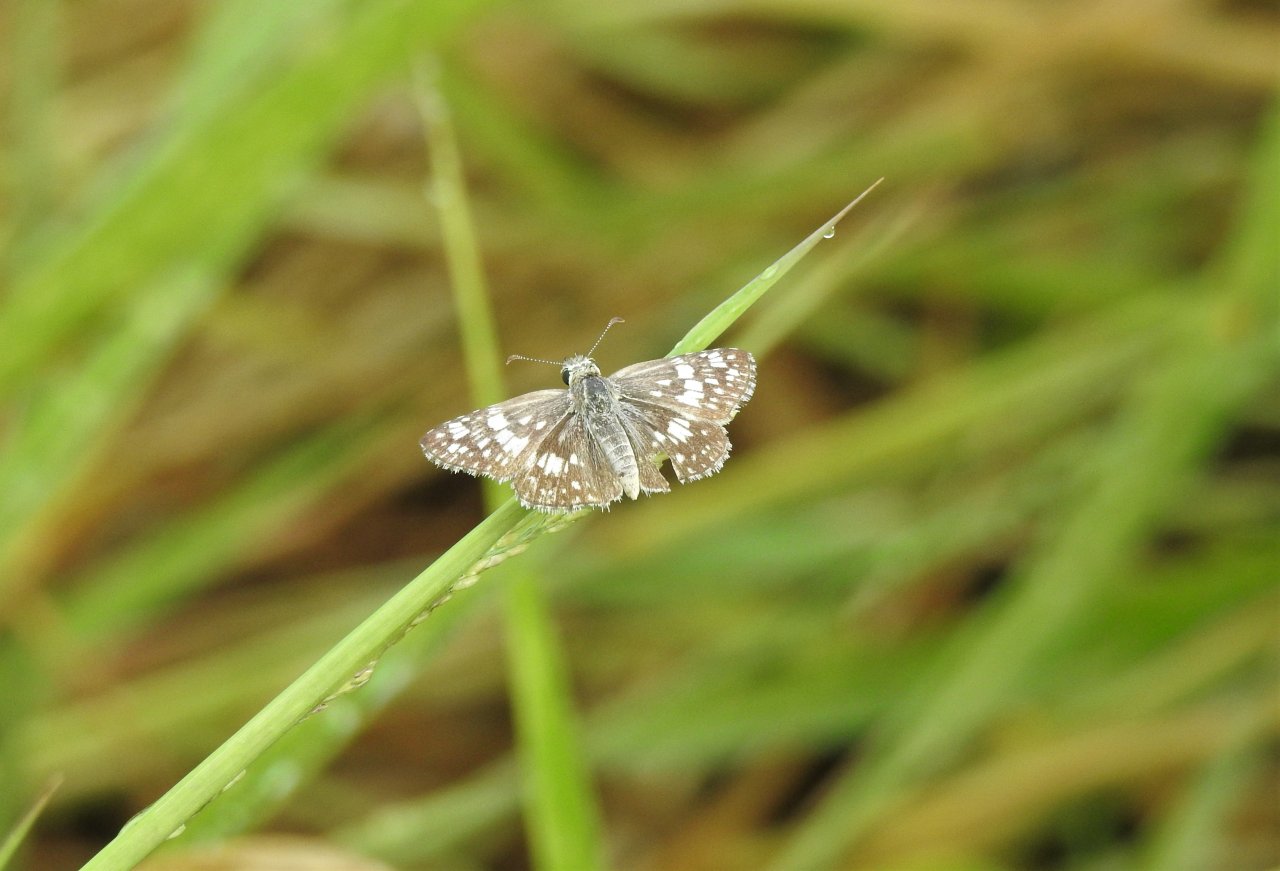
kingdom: Animalia
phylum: Arthropoda
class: Insecta
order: Lepidoptera
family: Hesperiidae
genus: Pyrgus
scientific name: Pyrgus communis
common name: White Checkered-Skipper
